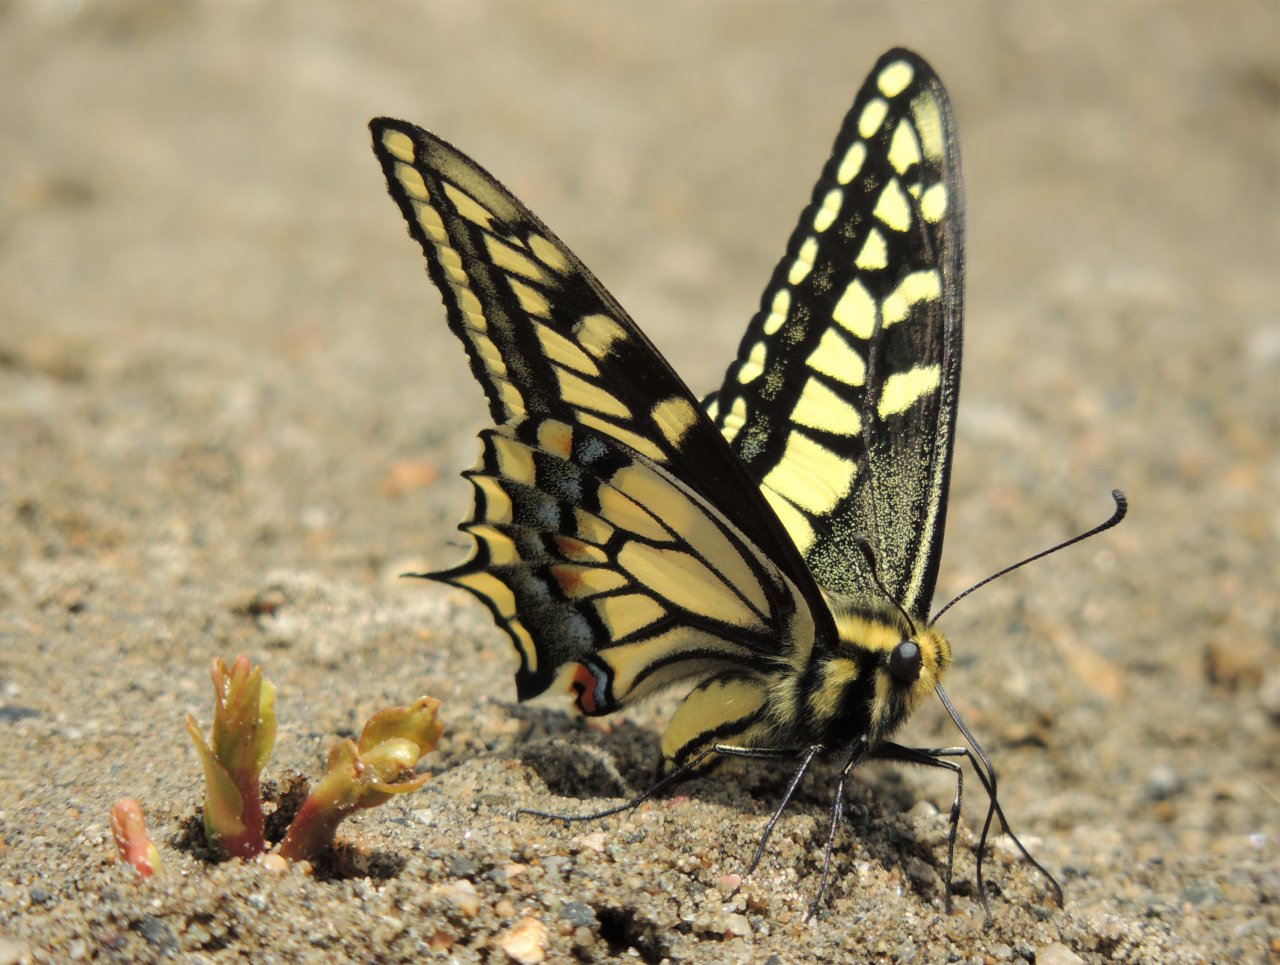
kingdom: Animalia
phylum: Arthropoda
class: Insecta
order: Lepidoptera
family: Papilionidae
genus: Papilio
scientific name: Papilio zelicaon
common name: Anise Swallowtail
